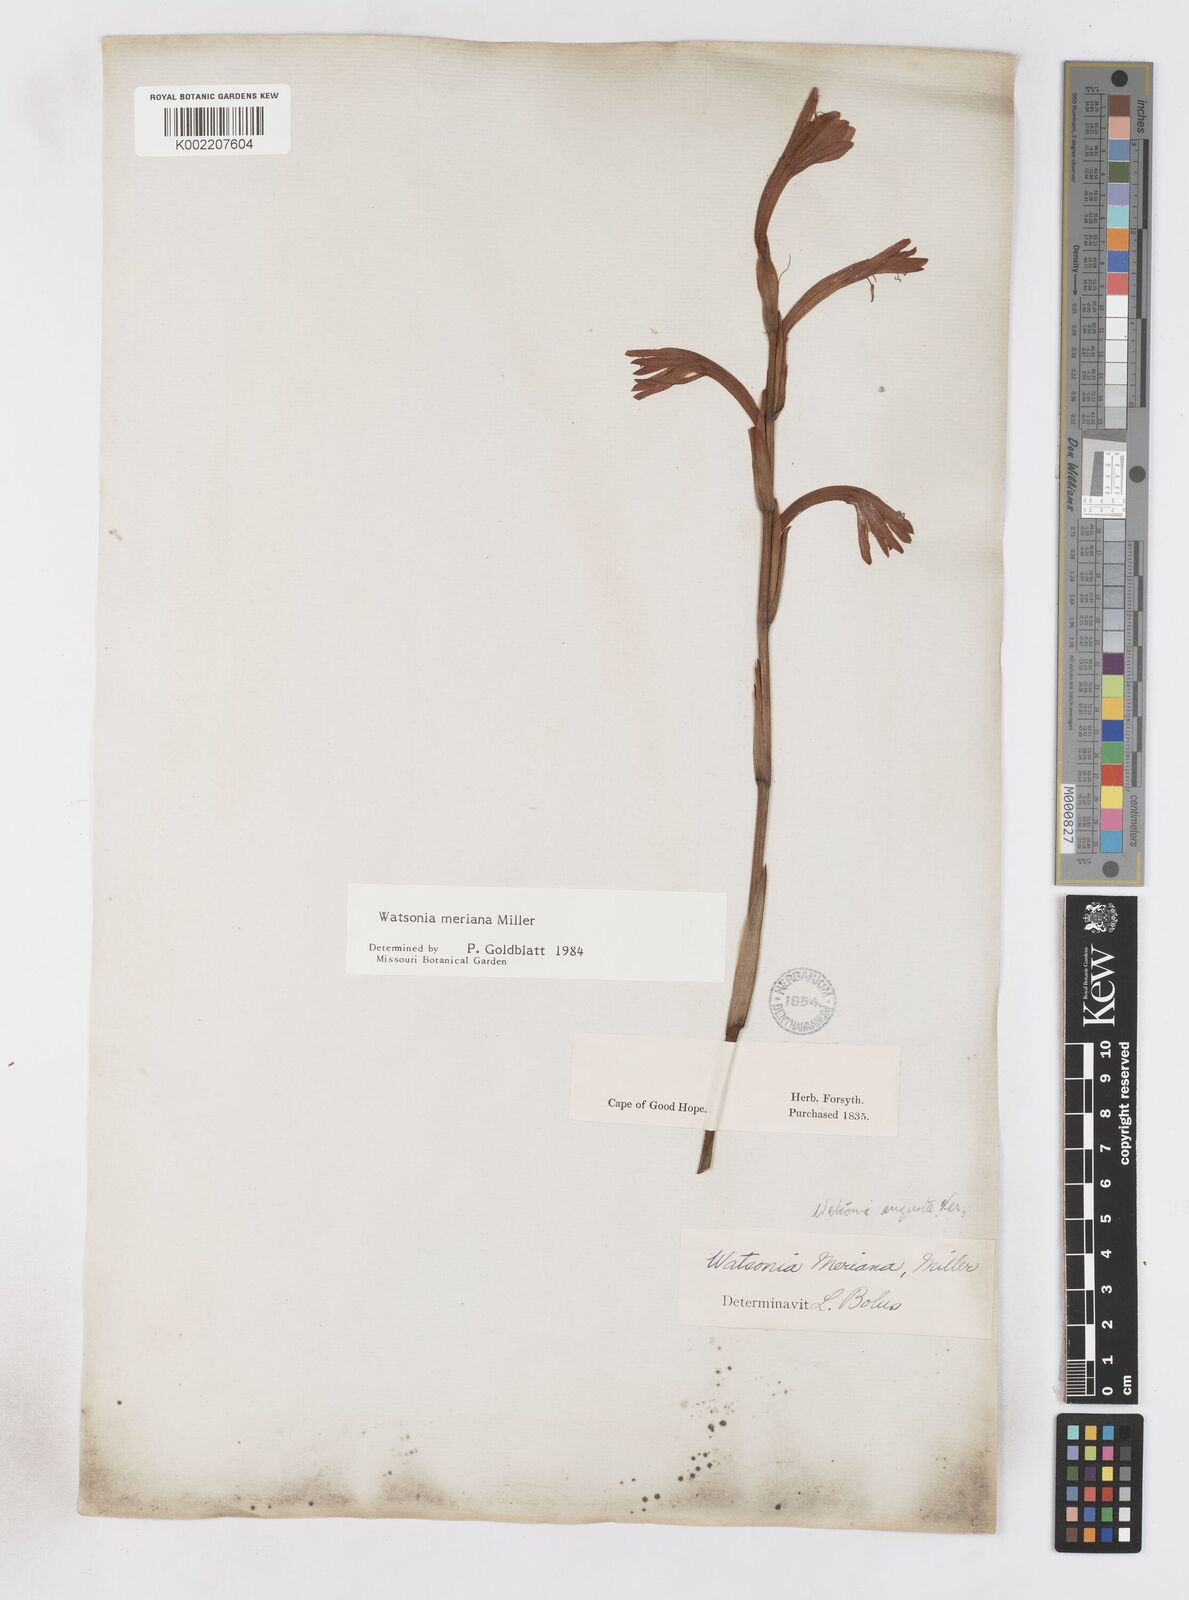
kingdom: Plantae
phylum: Tracheophyta
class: Liliopsida
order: Asparagales
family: Iridaceae
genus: Watsonia
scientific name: Watsonia meriana
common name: Bulbil bugle-lily
